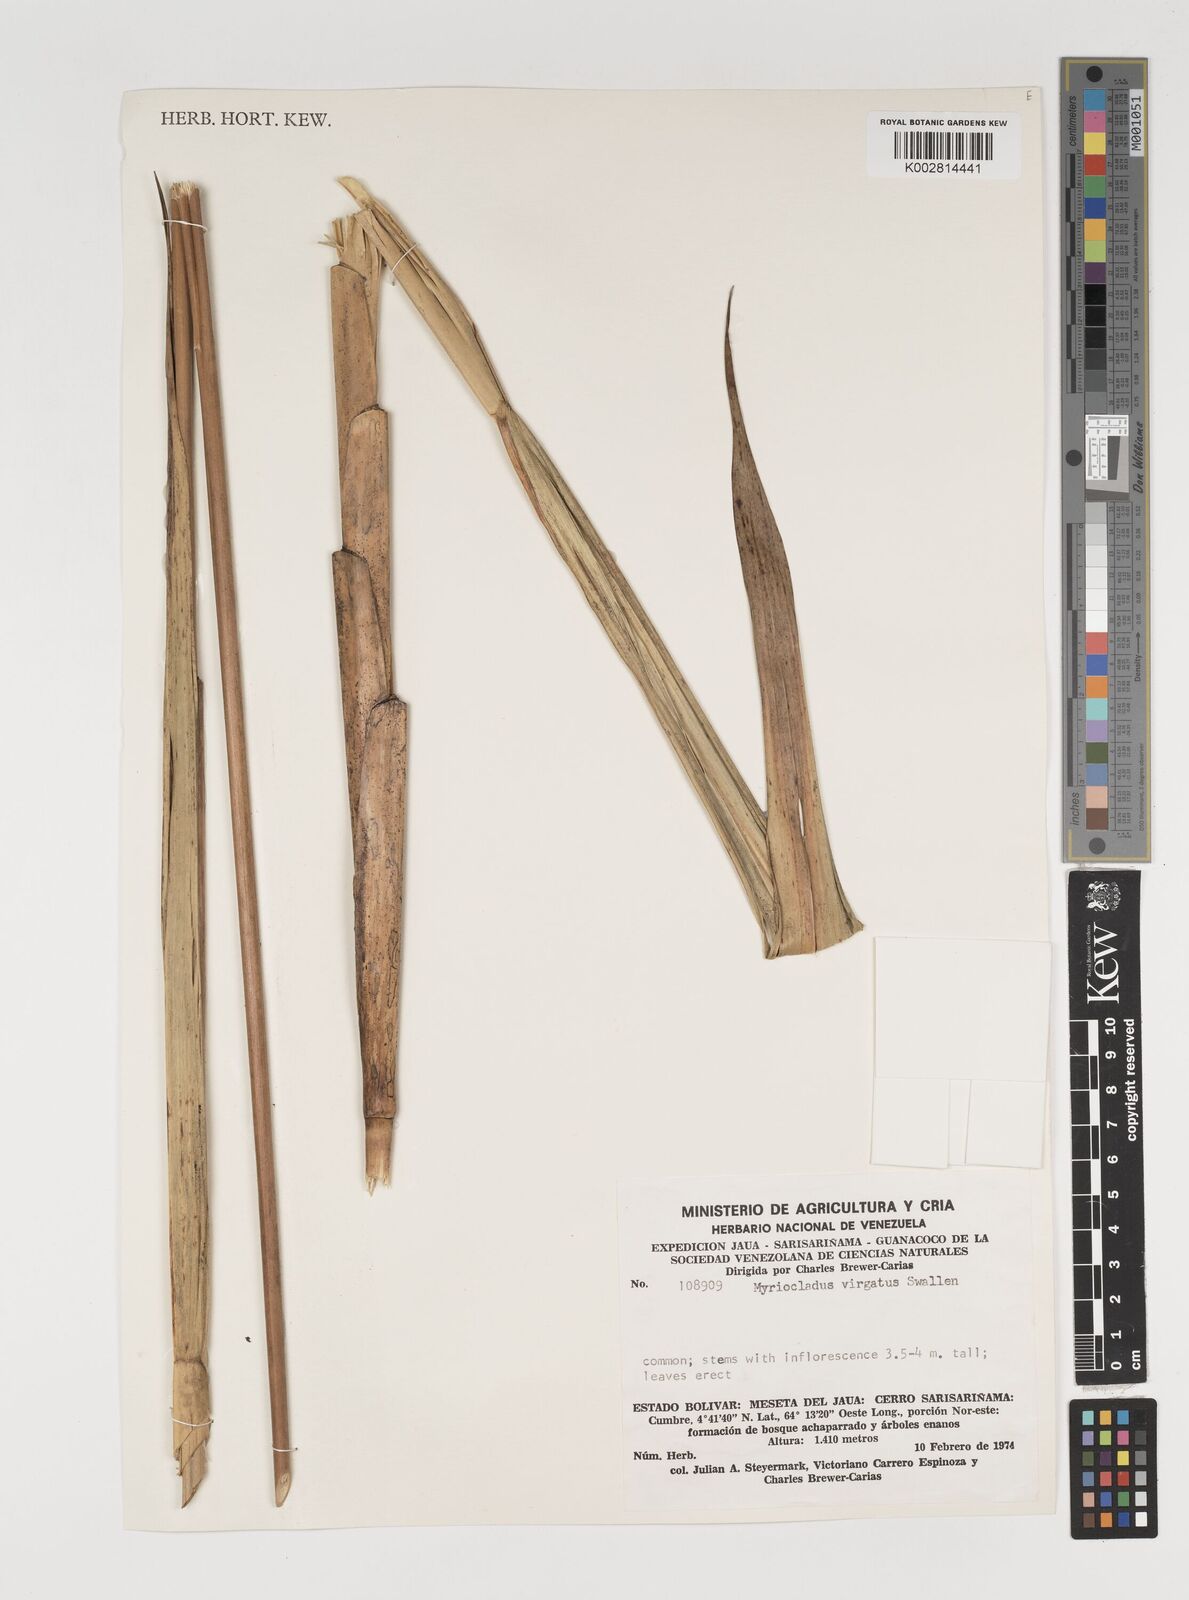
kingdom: Plantae
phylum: Tracheophyta
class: Liliopsida
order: Poales
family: Poaceae
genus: Myriocladus
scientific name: Myriocladus virgatus
